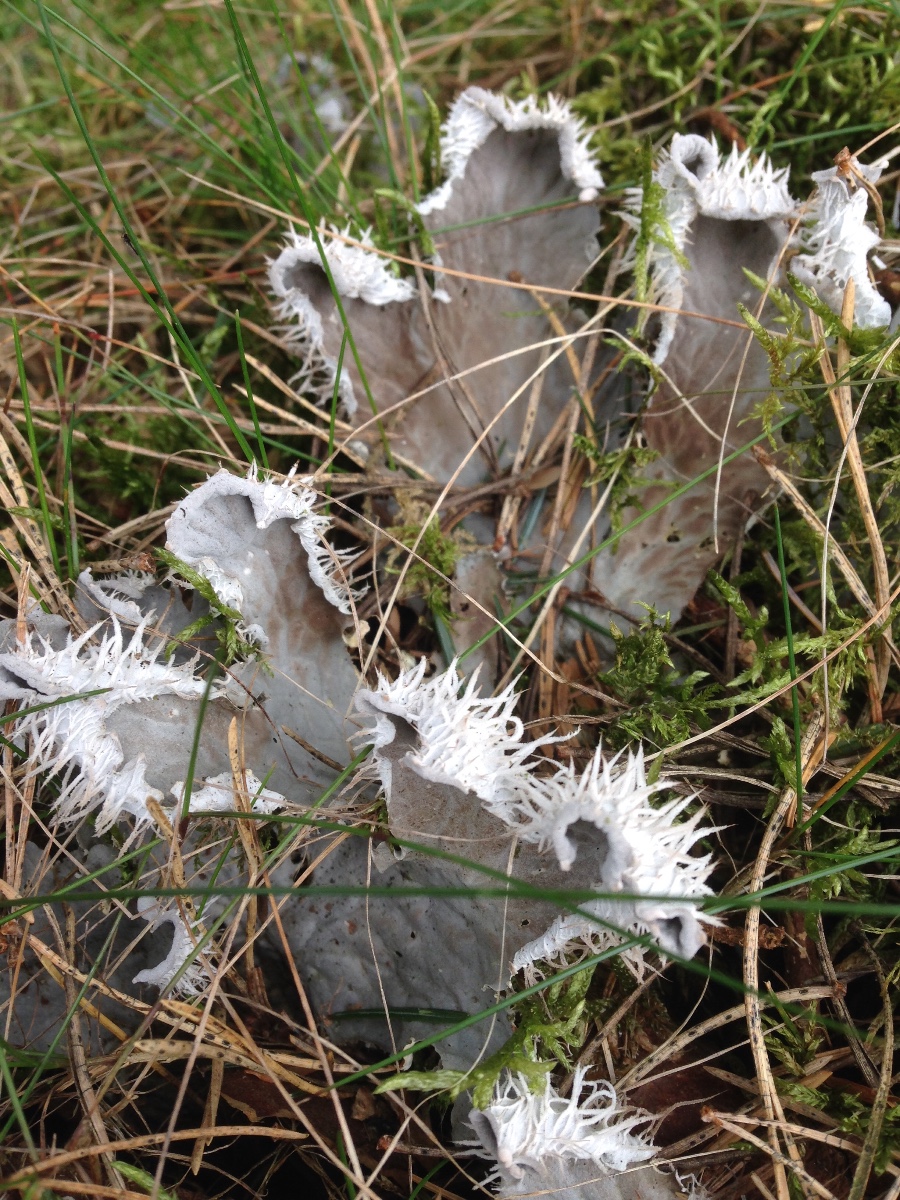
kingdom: Fungi
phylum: Ascomycota
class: Lecanoromycetes
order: Peltigerales
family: Peltigeraceae
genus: Peltigera
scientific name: Peltigera membranacea
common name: tynd skjoldlav
